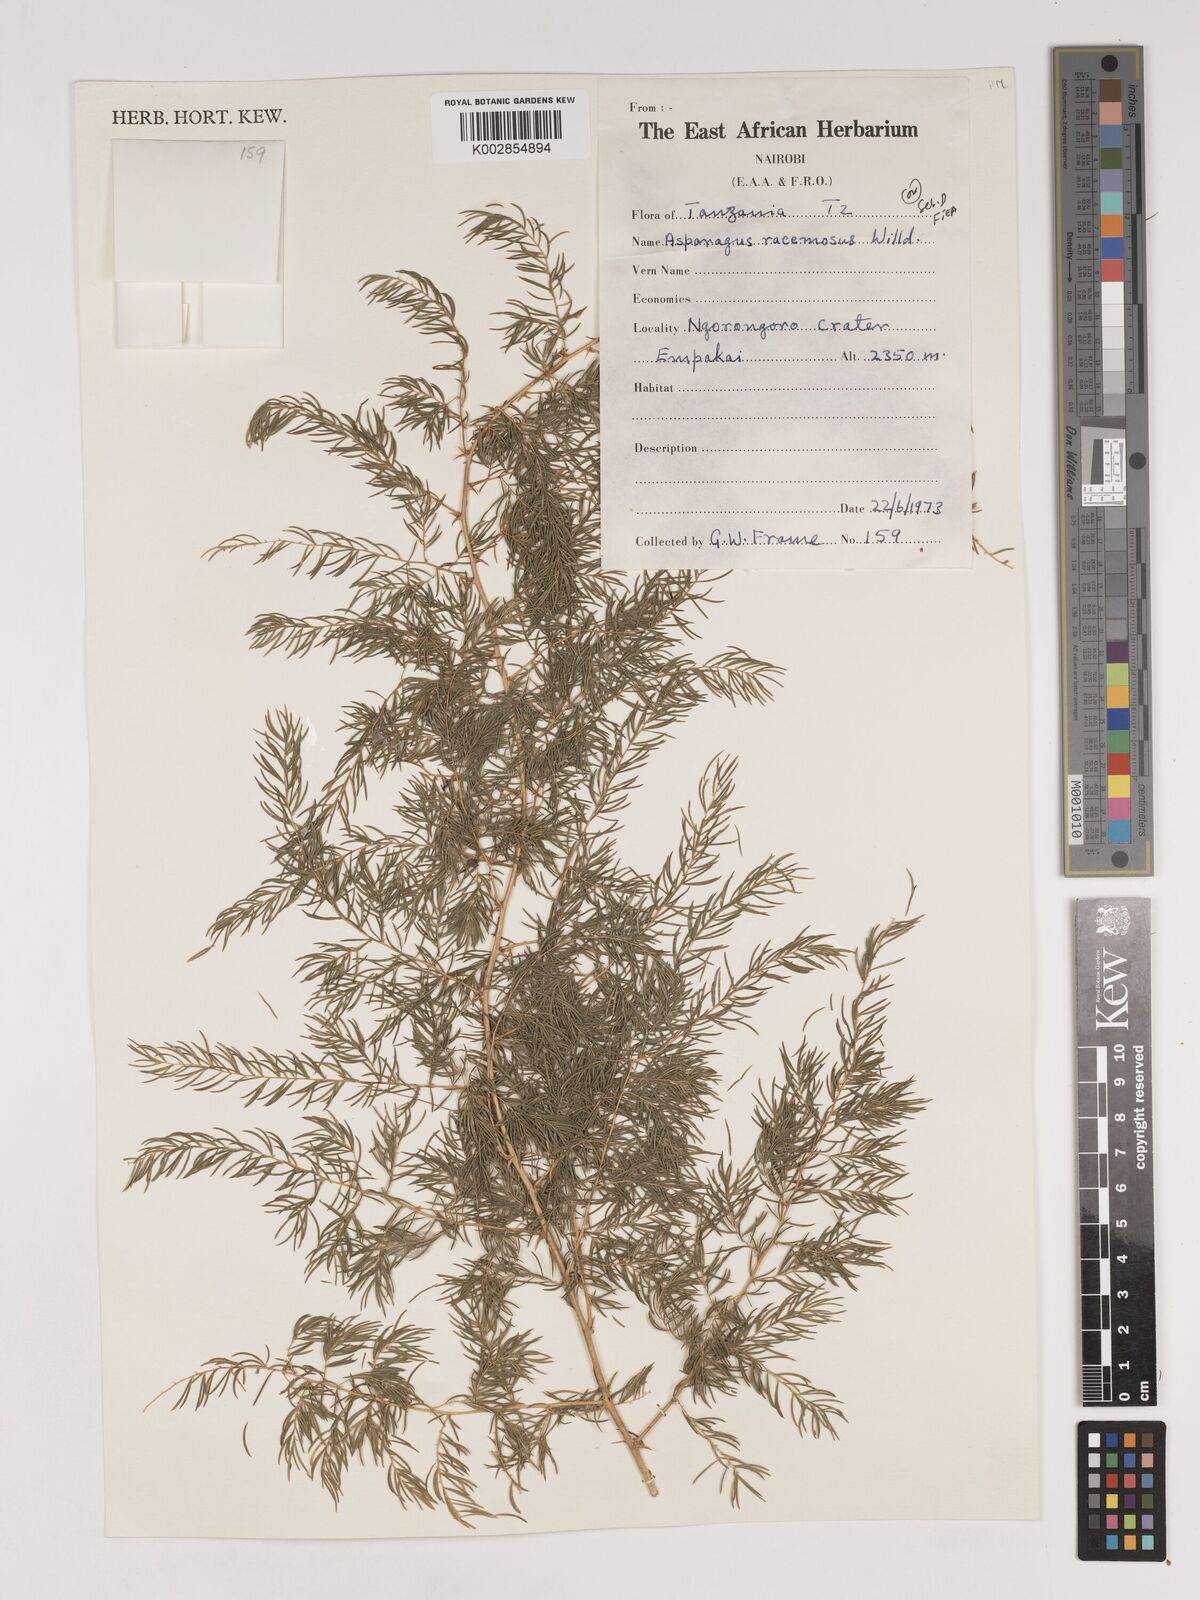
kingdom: Plantae
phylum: Tracheophyta
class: Liliopsida
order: Asparagales
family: Asparagaceae
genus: Asparagus
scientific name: Asparagus racemosus
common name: Asparagus-fern
